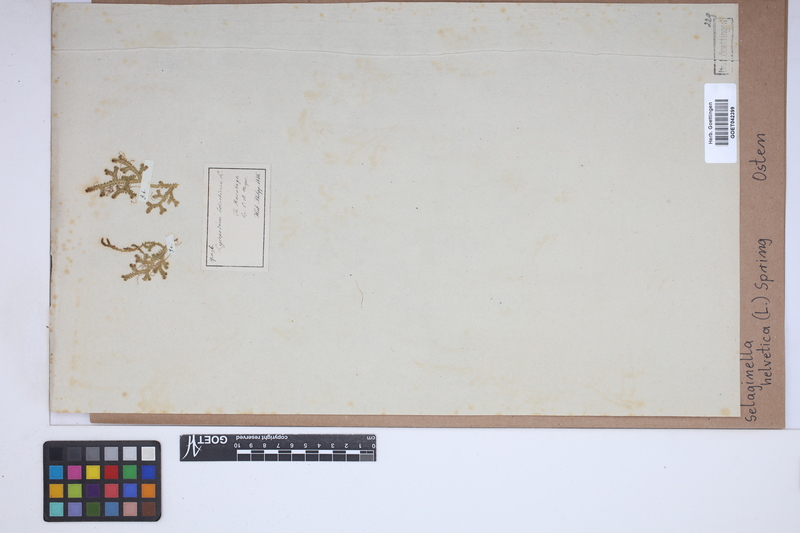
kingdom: Plantae
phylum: Tracheophyta
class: Lycopodiopsida
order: Selaginellales
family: Selaginellaceae
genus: Selaginella
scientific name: Selaginella helvetica
